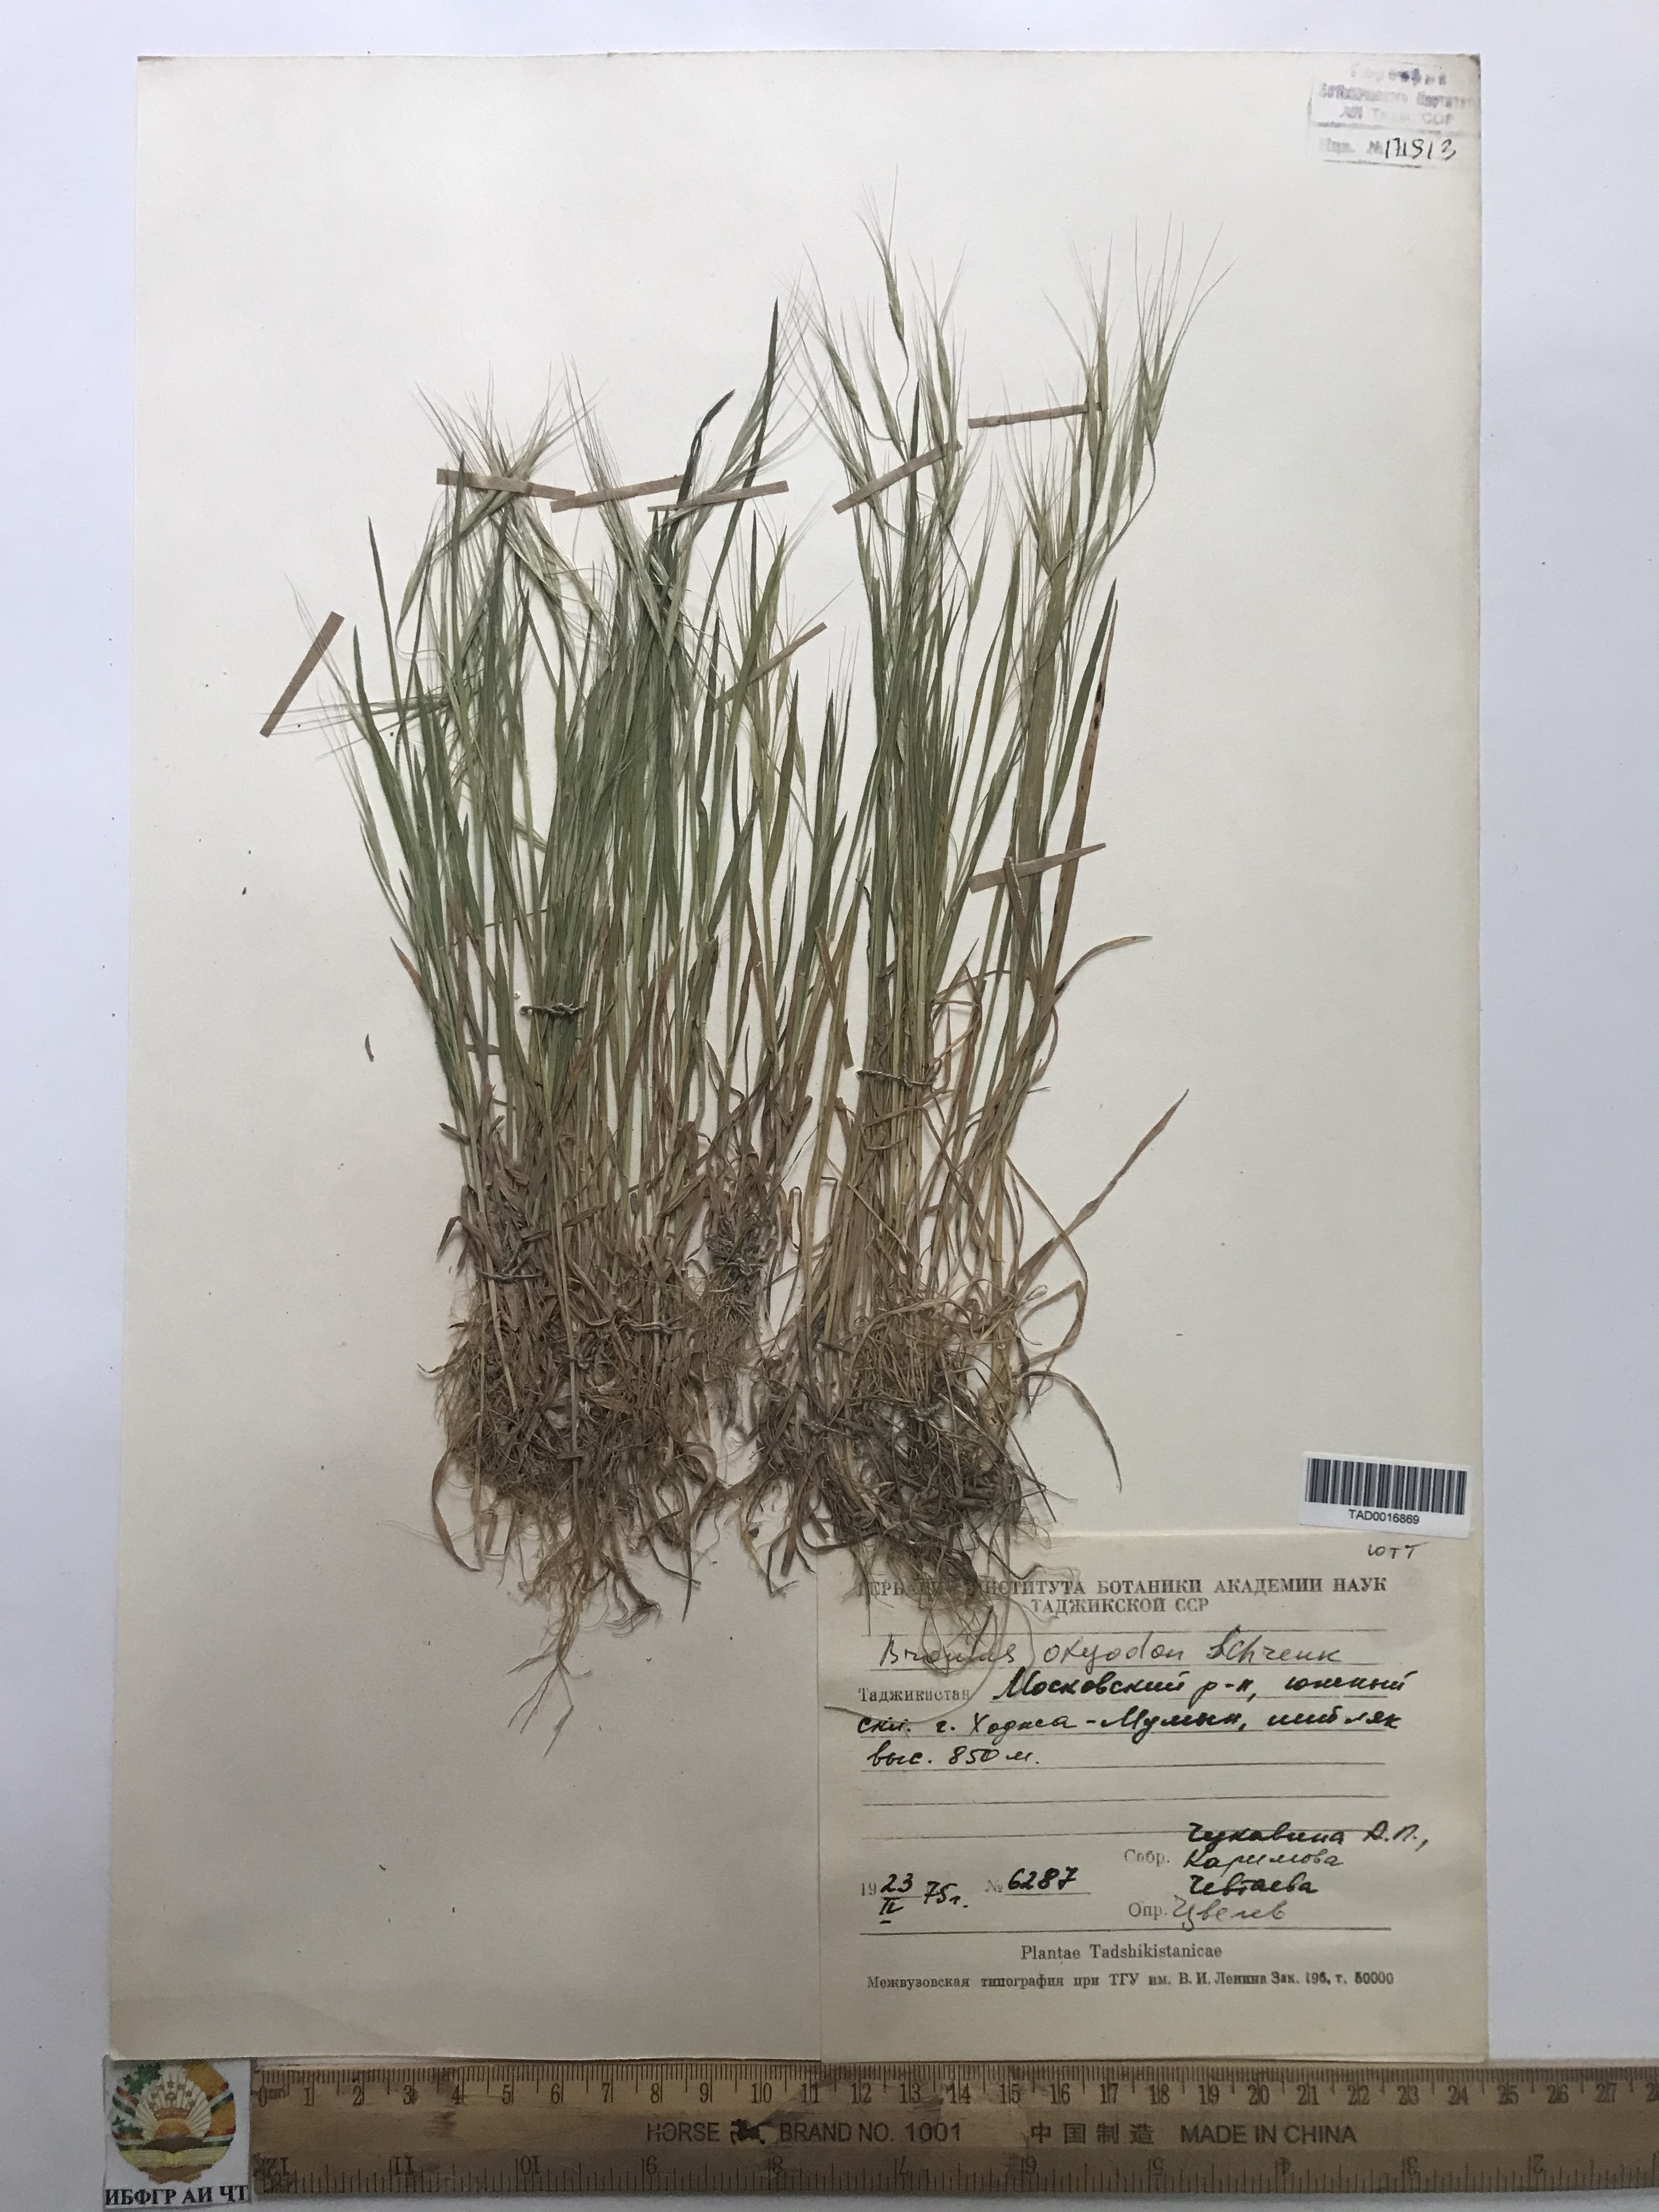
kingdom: Plantae
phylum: Tracheophyta
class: Liliopsida
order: Poales
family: Poaceae
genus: Bromus
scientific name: Bromus oxyodon
